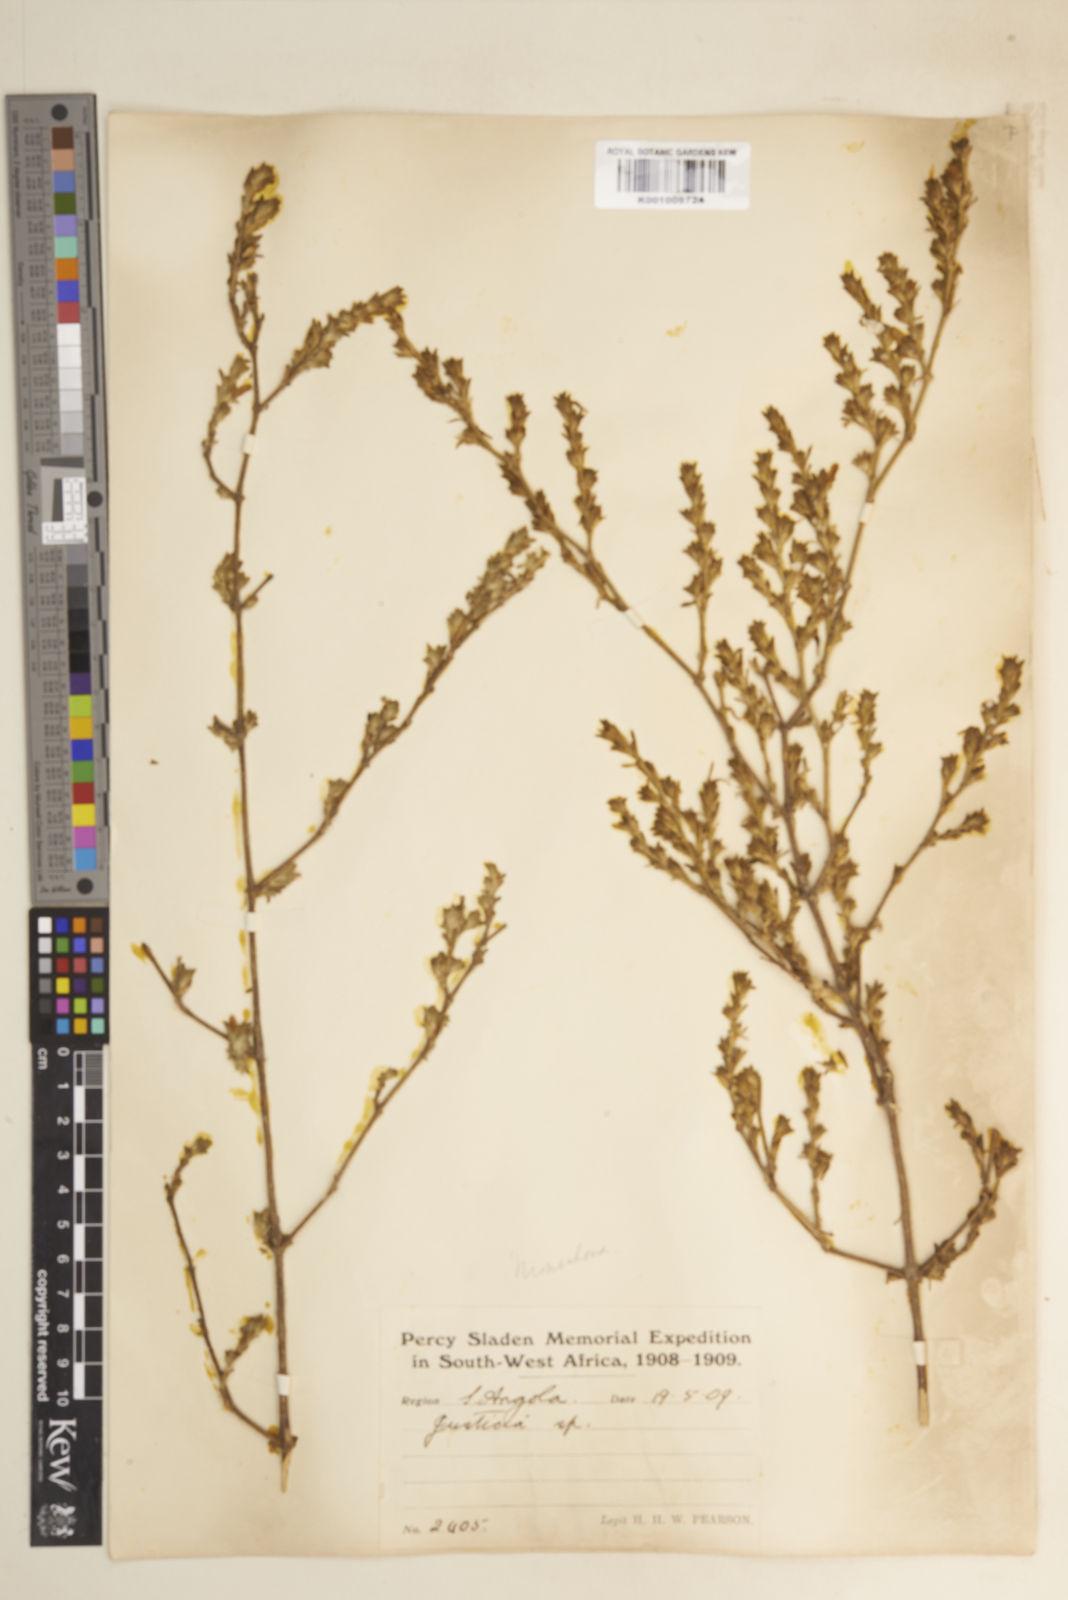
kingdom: Plantae
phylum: Tracheophyta
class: Magnoliopsida
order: Lamiales
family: Acanthaceae
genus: Pogonospermum
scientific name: Pogonospermum
